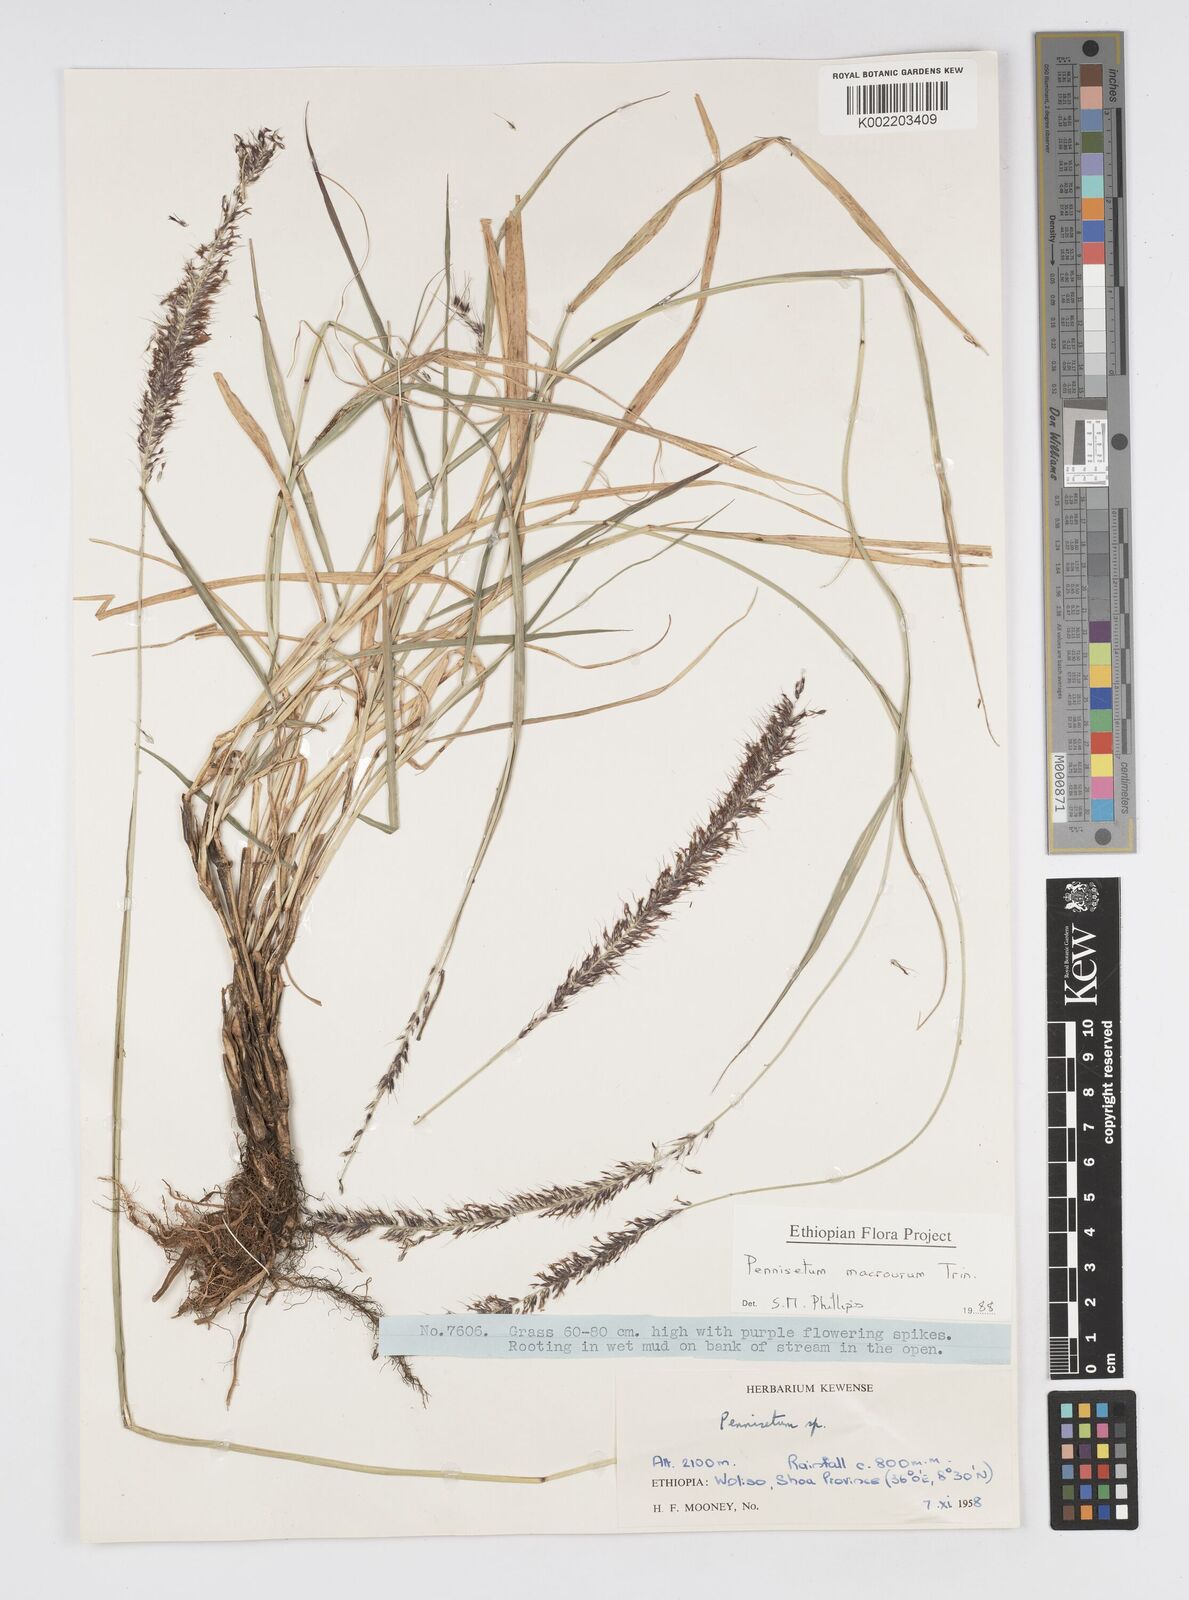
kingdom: Plantae
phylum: Tracheophyta
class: Liliopsida
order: Poales
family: Poaceae
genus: Cenchrus
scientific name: Cenchrus caudatus
